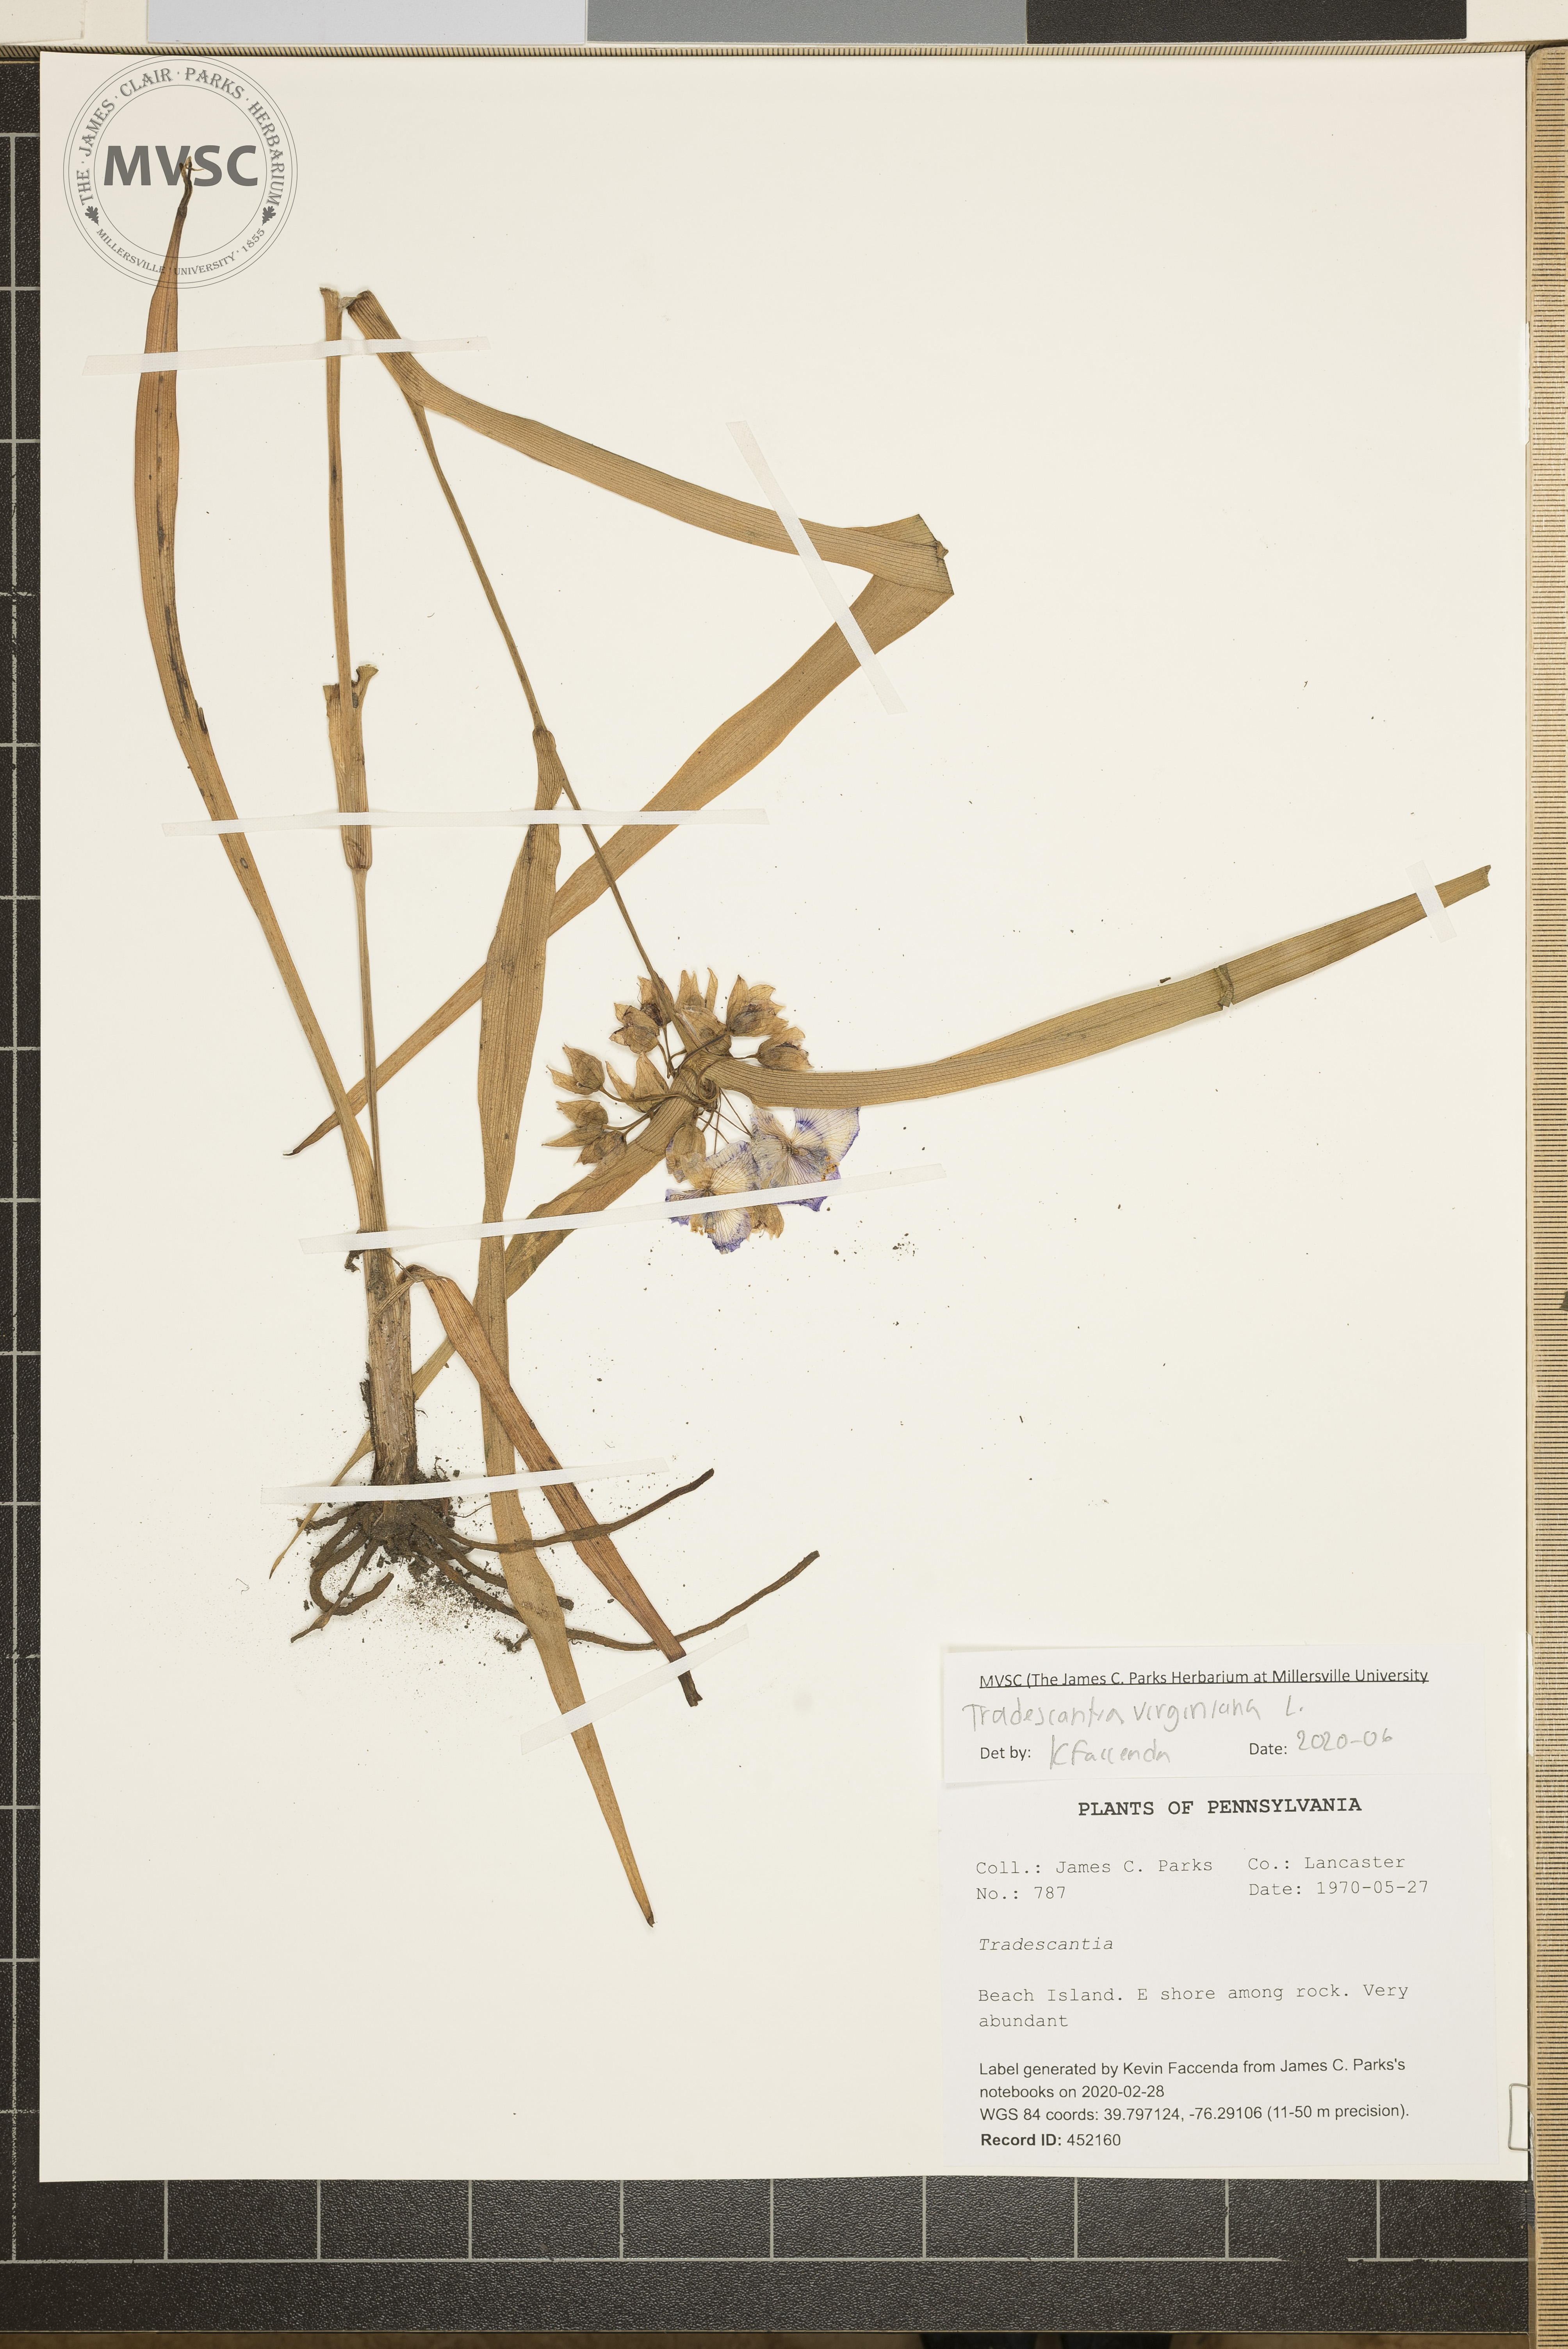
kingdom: Plantae
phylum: Tracheophyta
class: Liliopsida
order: Commelinales
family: Commelinaceae
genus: Tradescantia
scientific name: Tradescantia virginiana
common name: Spiderwort
